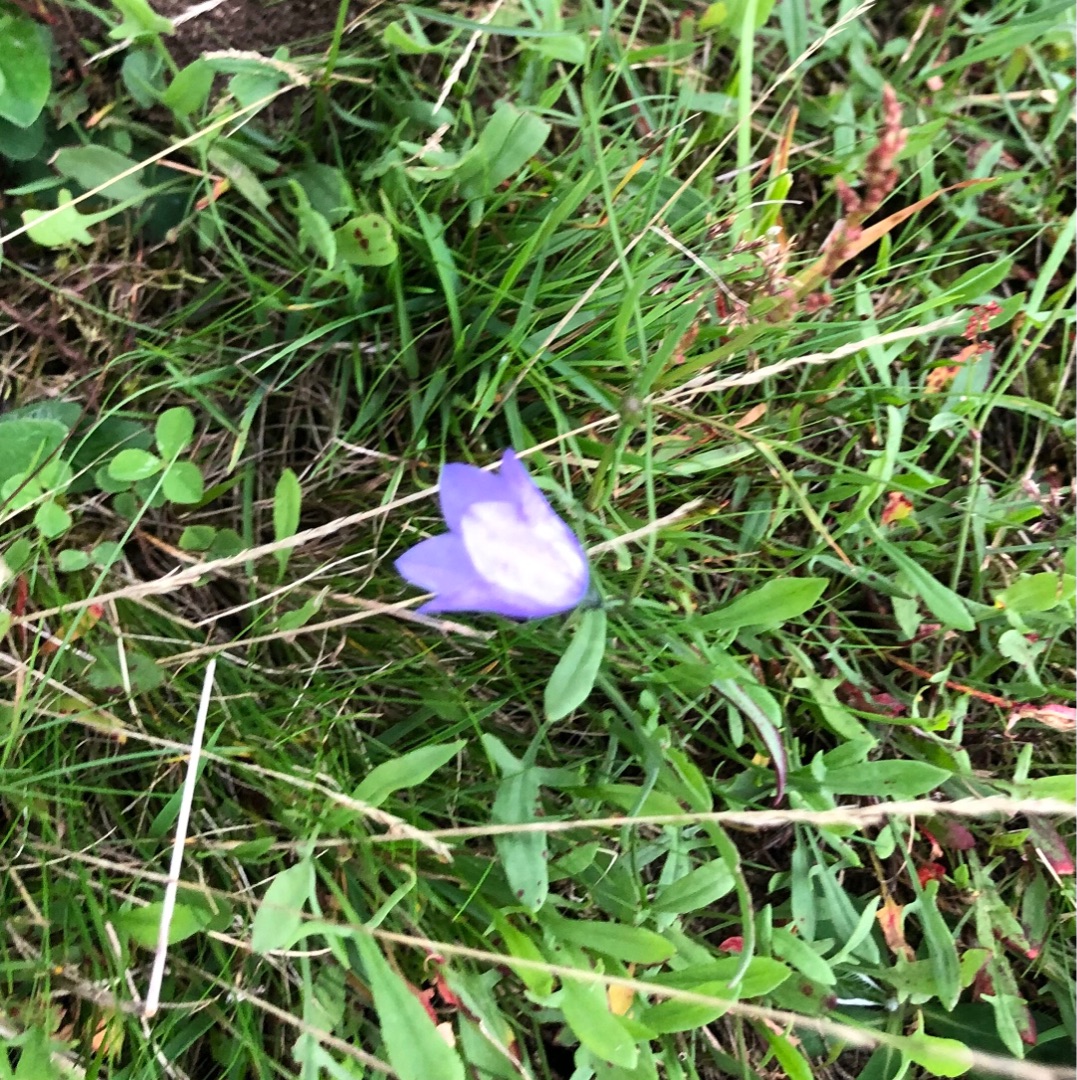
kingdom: Plantae
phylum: Tracheophyta
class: Magnoliopsida
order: Asterales
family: Campanulaceae
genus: Campanula
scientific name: Campanula rotundifolia
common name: Liden klokke
